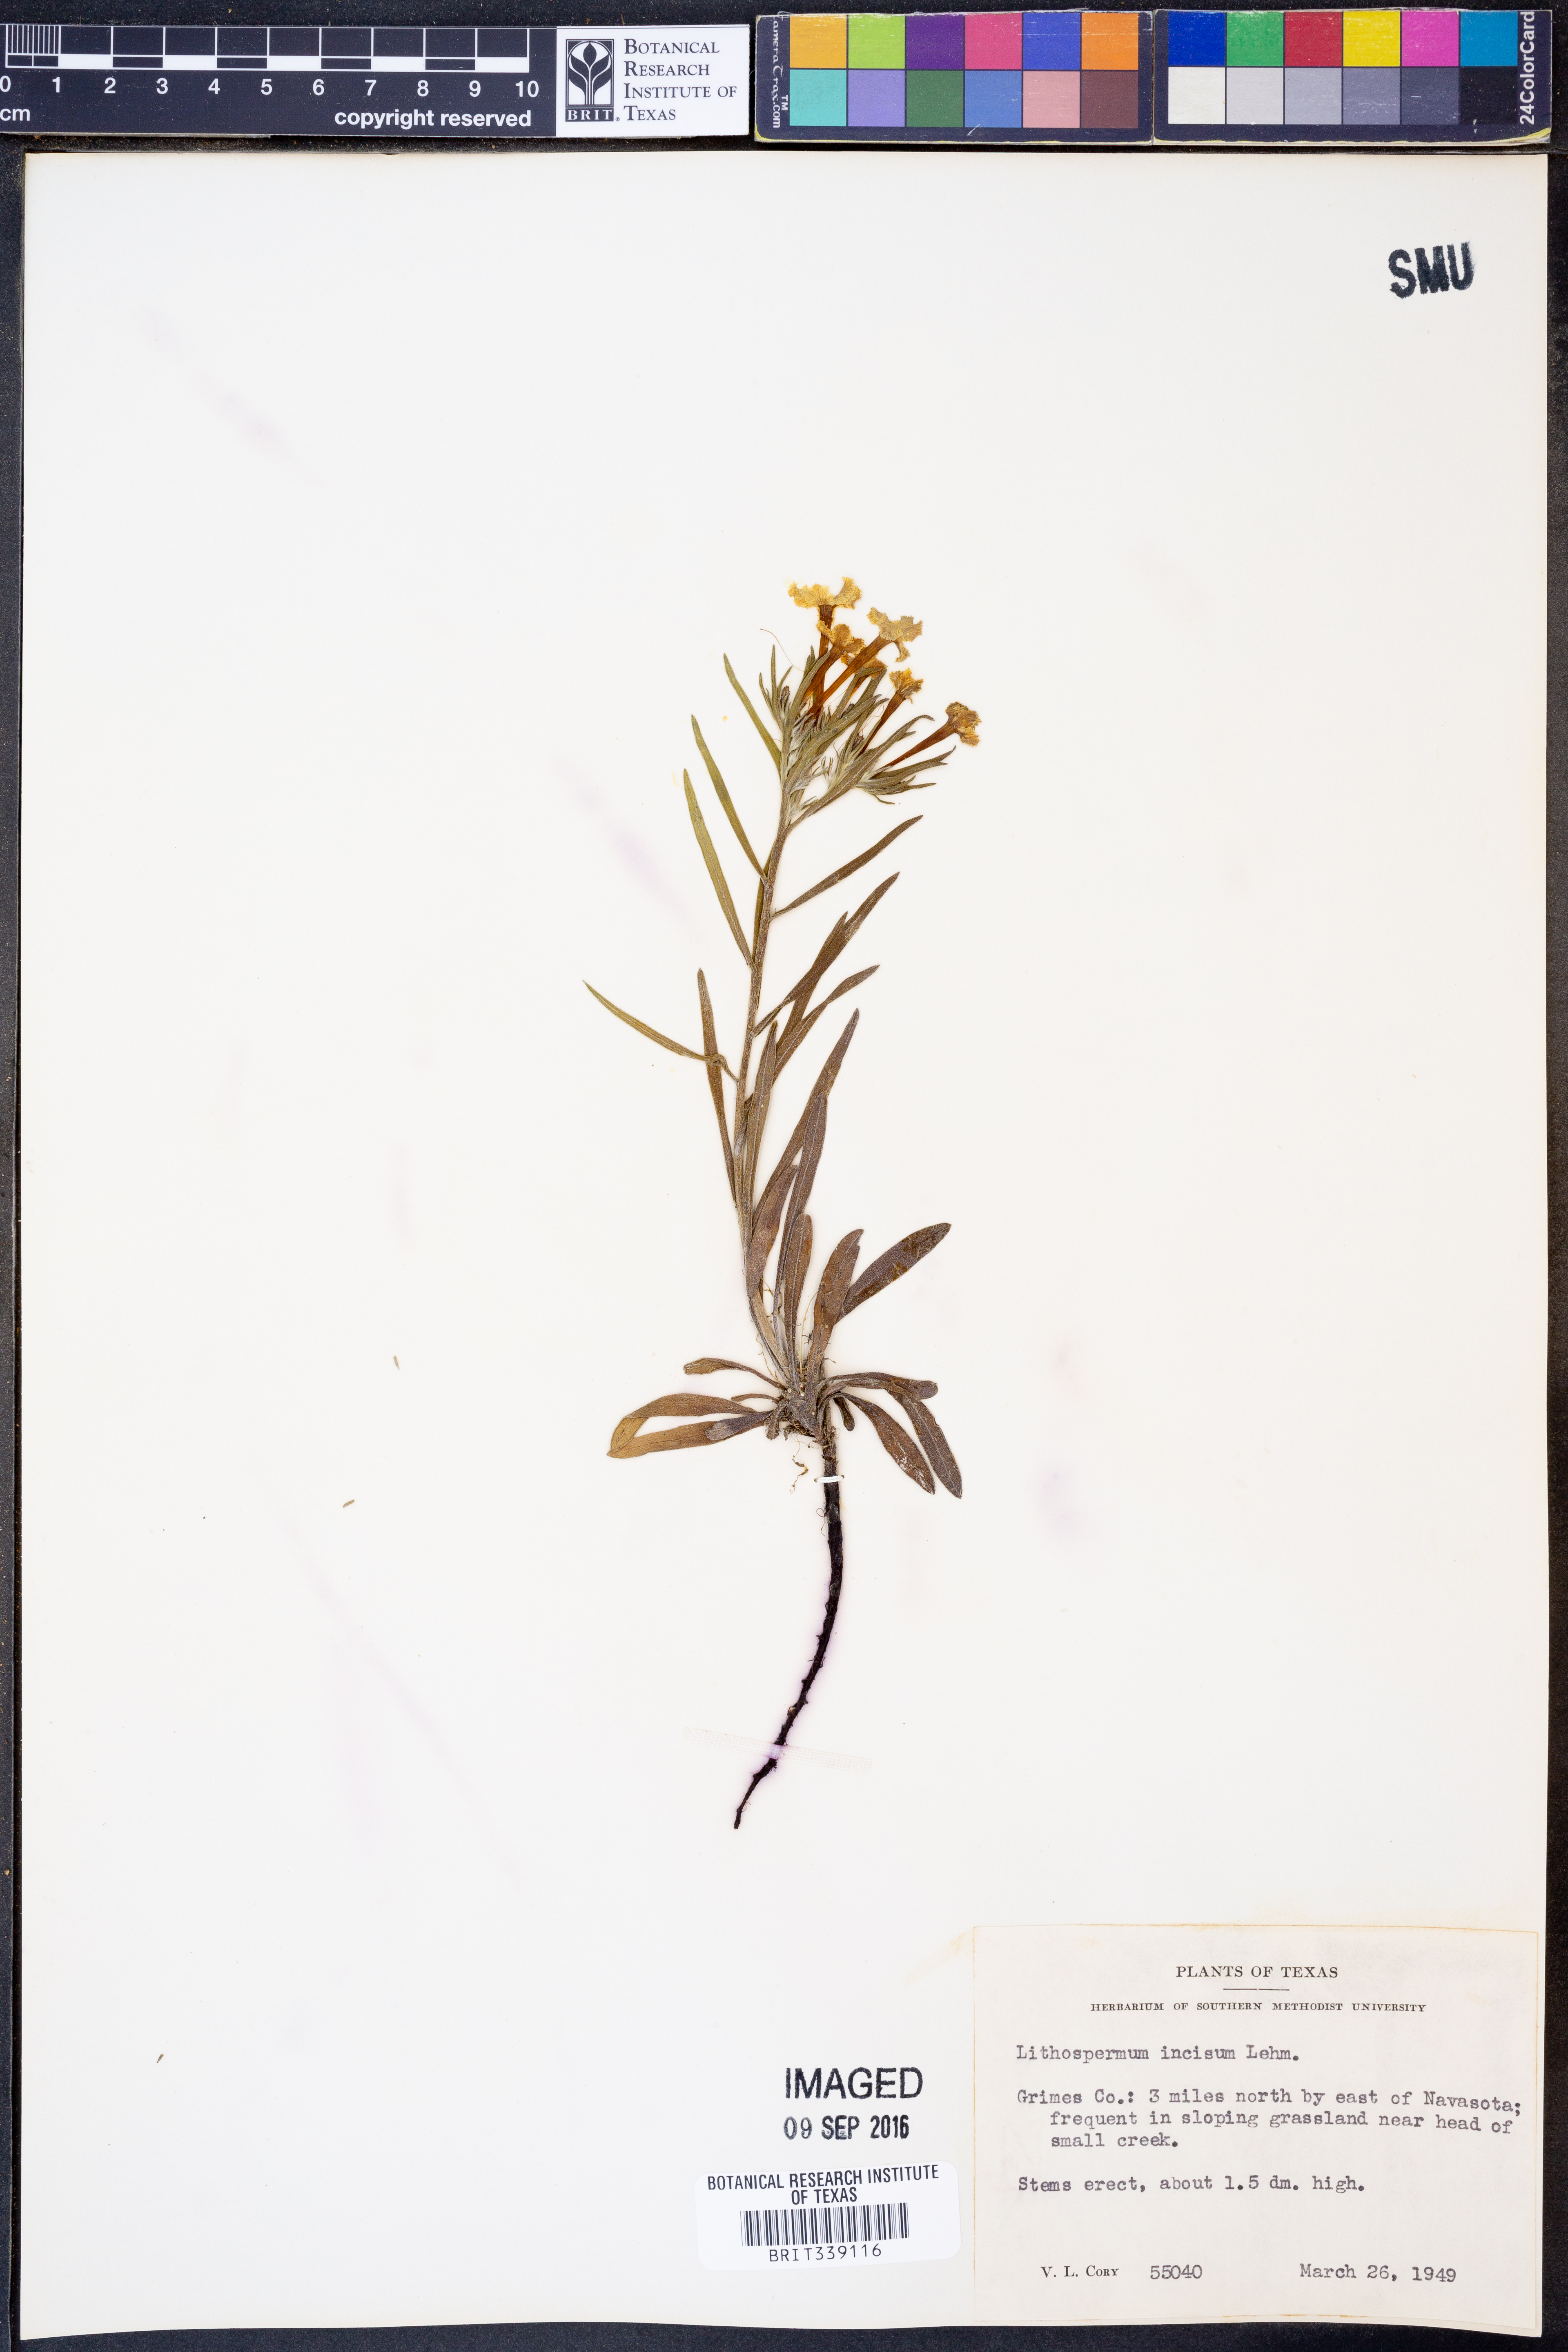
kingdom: Plantae
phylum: Tracheophyta
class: Magnoliopsida
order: Boraginales
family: Boraginaceae
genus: Lithospermum
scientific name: Lithospermum incisum
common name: Fringed gromwell
